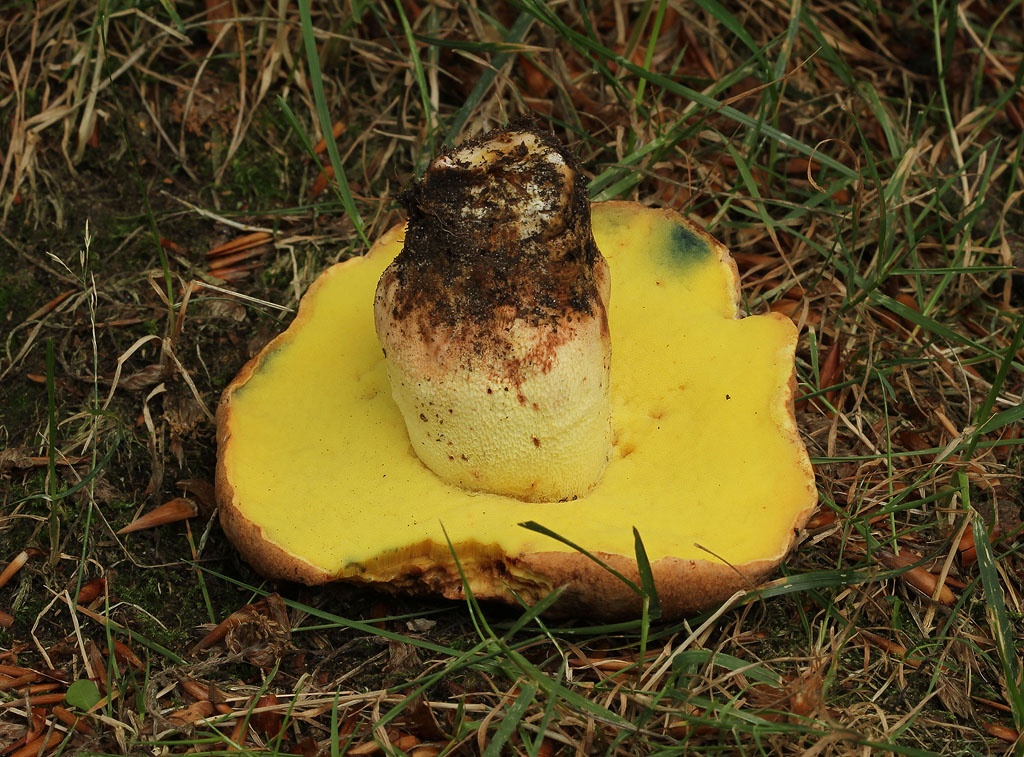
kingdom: Fungi
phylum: Basidiomycota
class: Agaricomycetes
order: Boletales
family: Boletaceae
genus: Butyriboletus
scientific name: Butyriboletus appendiculatus
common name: tenstokket rørhat
